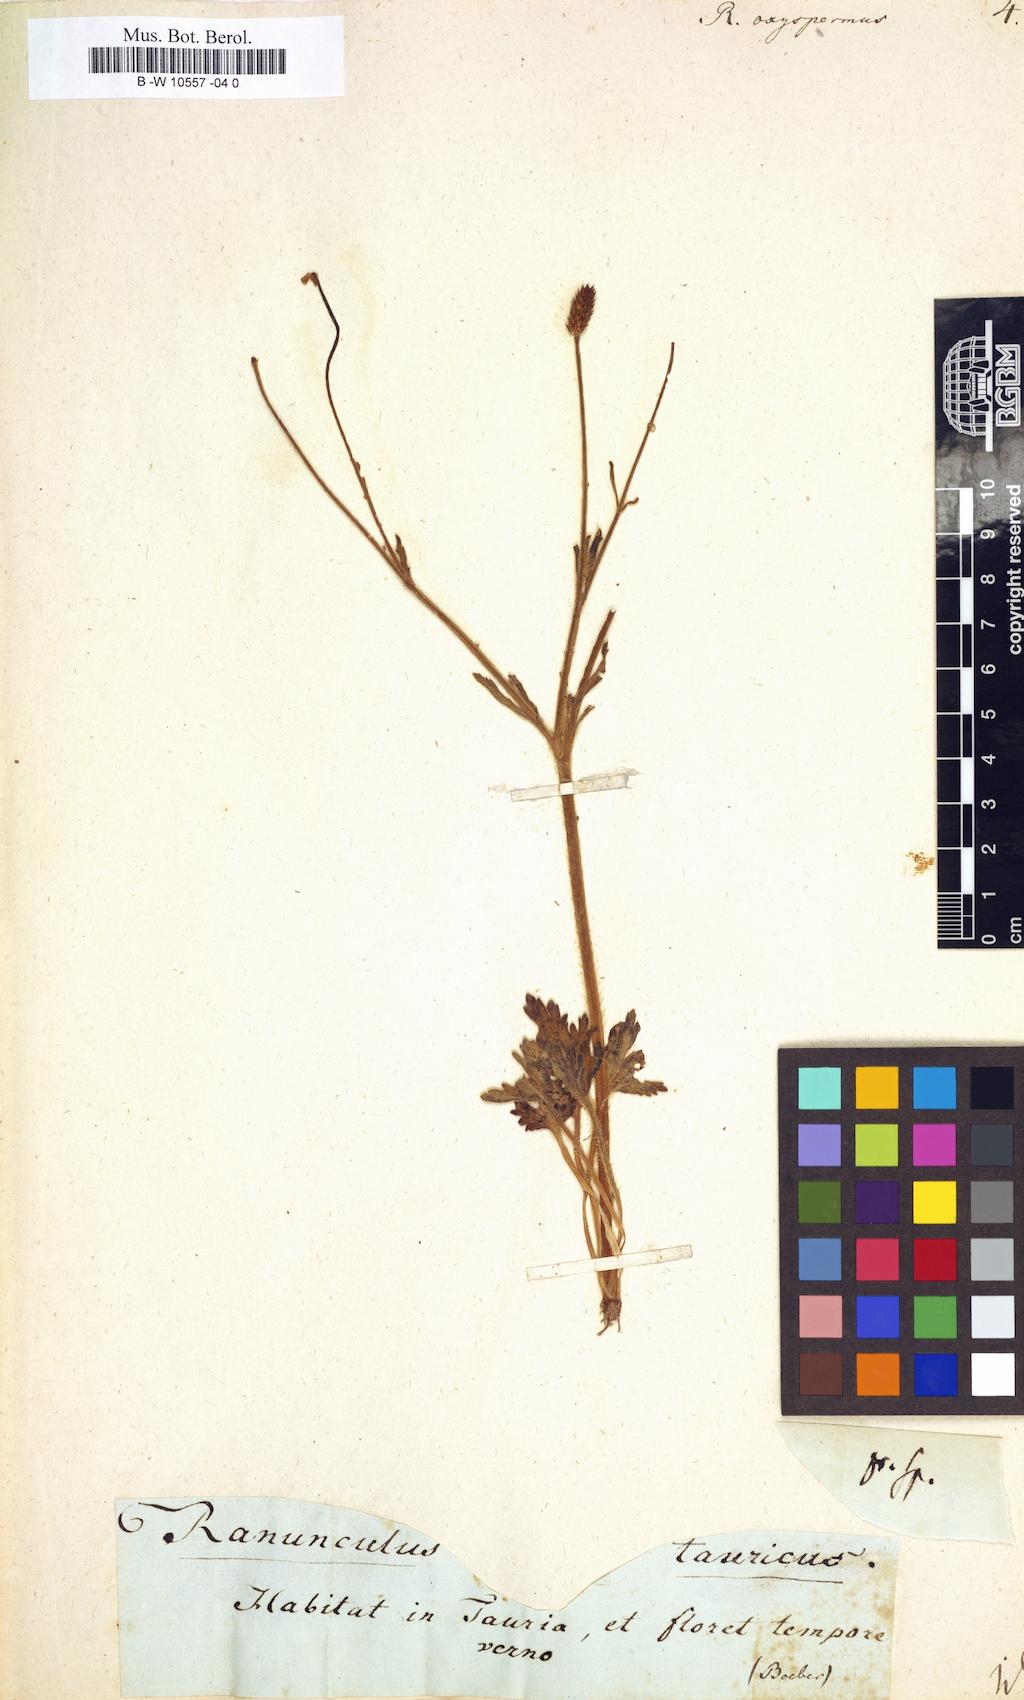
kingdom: Plantae
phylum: Tracheophyta
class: Magnoliopsida
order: Ranunculales
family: Ranunculaceae
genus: Ranunculus
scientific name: Ranunculus oxyspermus
